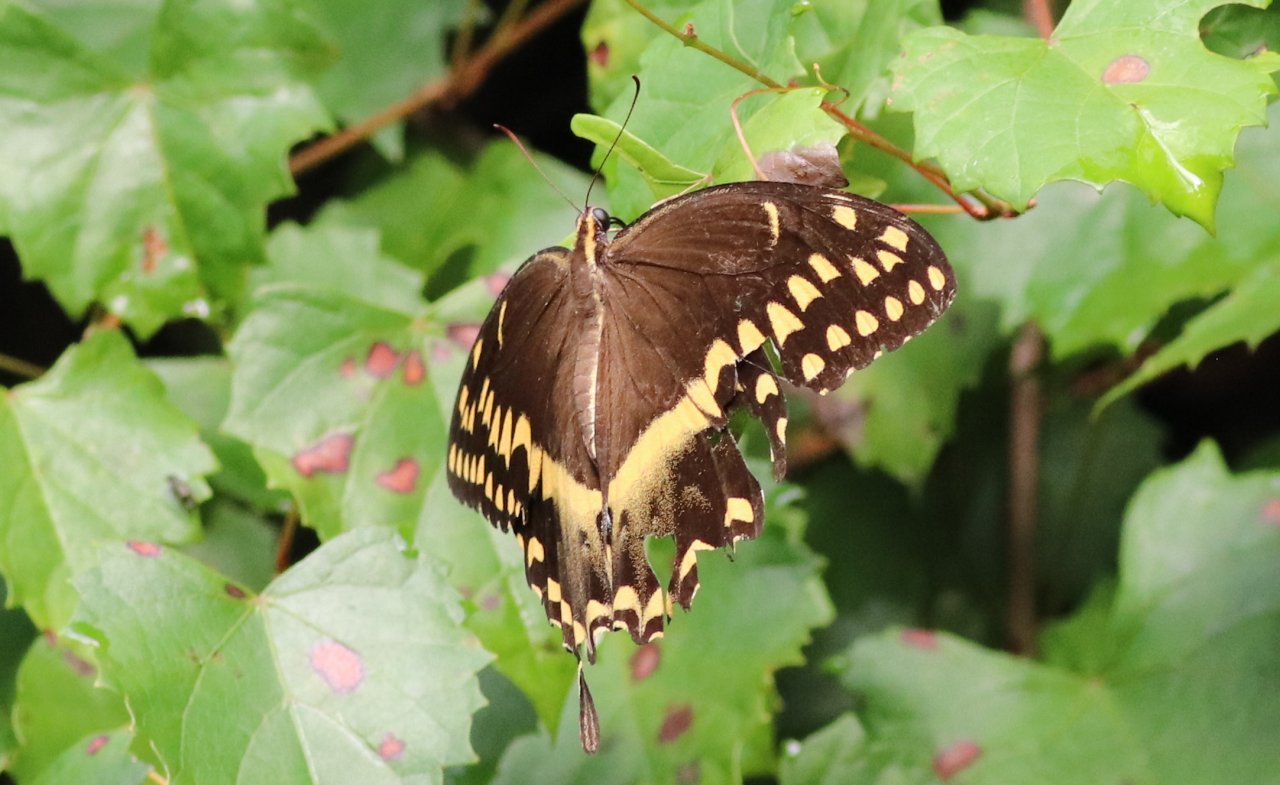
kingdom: Animalia
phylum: Arthropoda
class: Insecta
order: Lepidoptera
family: Papilionidae
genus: Pterourus
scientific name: Pterourus palamedes
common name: Palamedes Swallowtail
